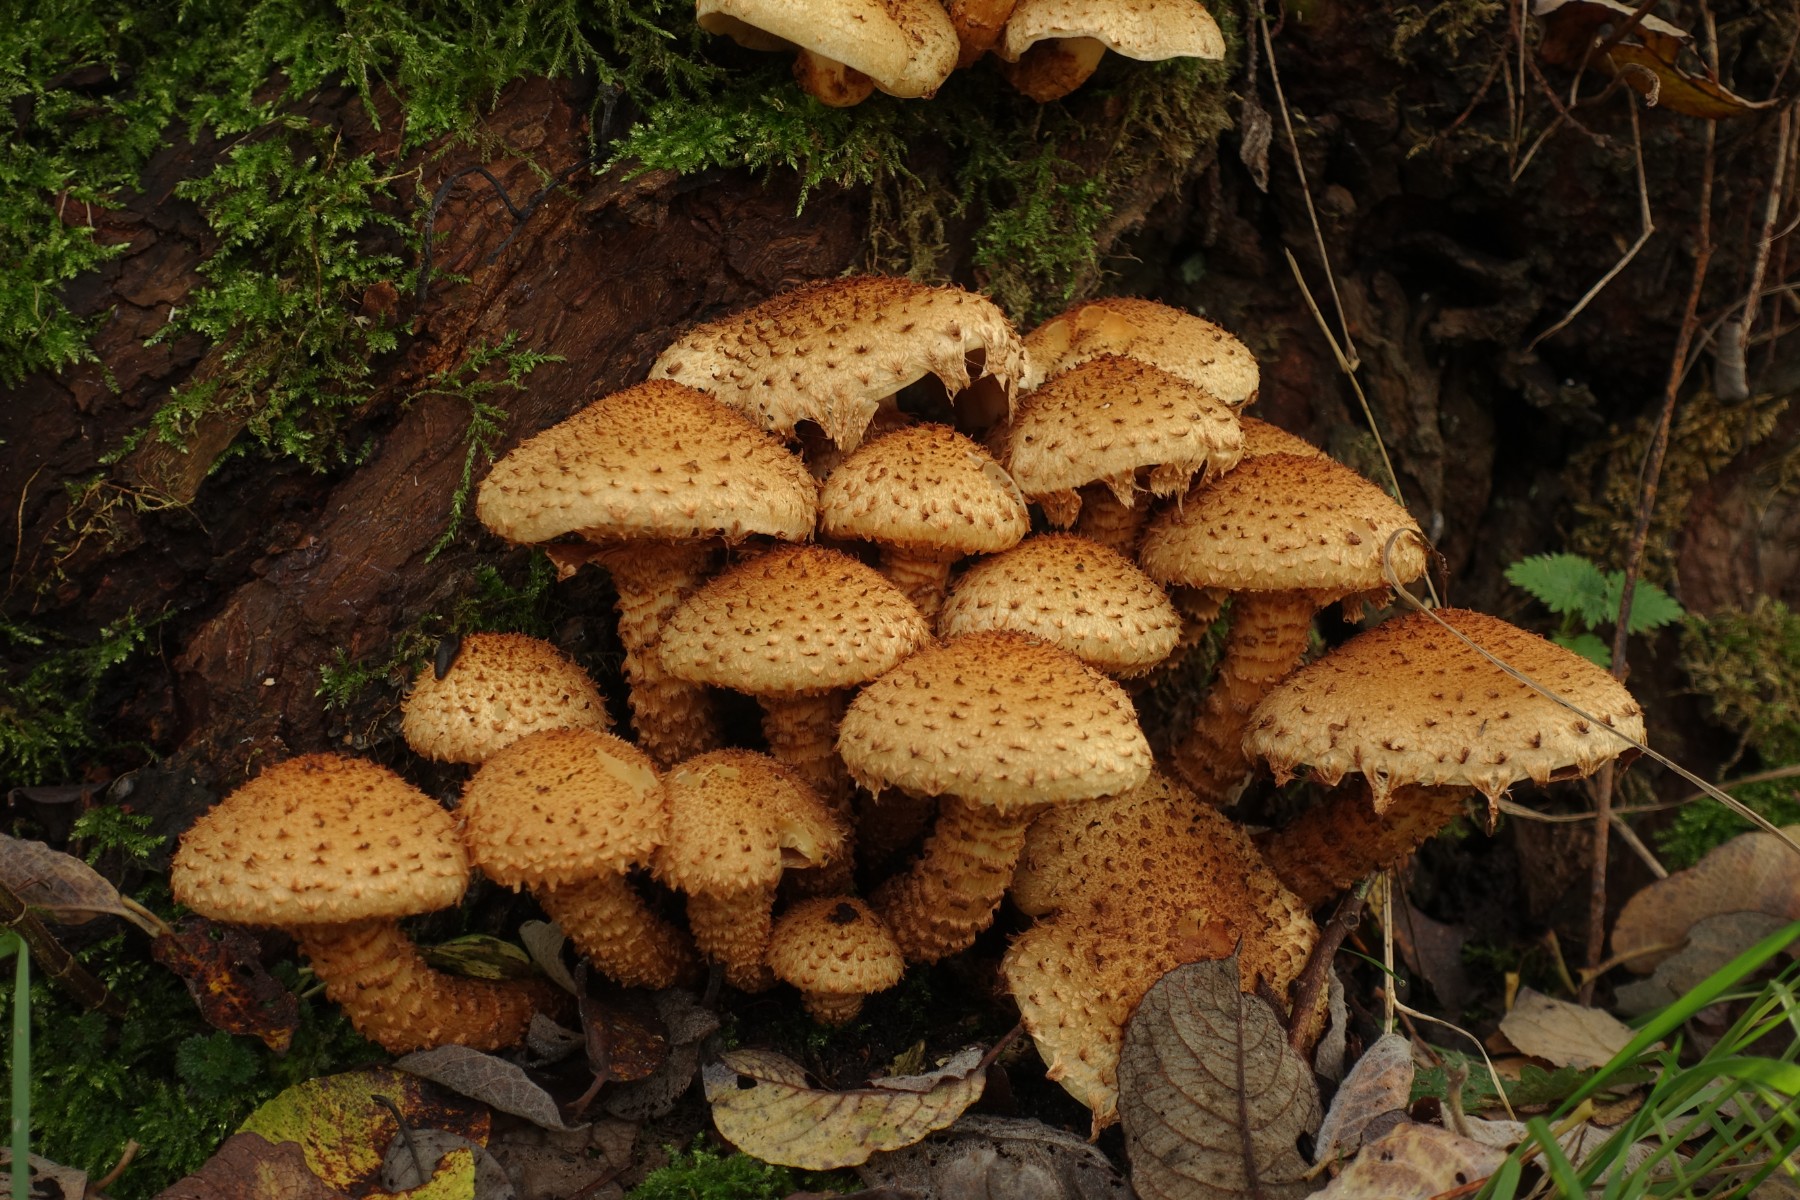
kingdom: Fungi
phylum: Basidiomycota
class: Agaricomycetes
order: Agaricales
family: Strophariaceae
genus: Pholiota
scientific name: Pholiota squarrosa
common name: krumskællet skælhat
